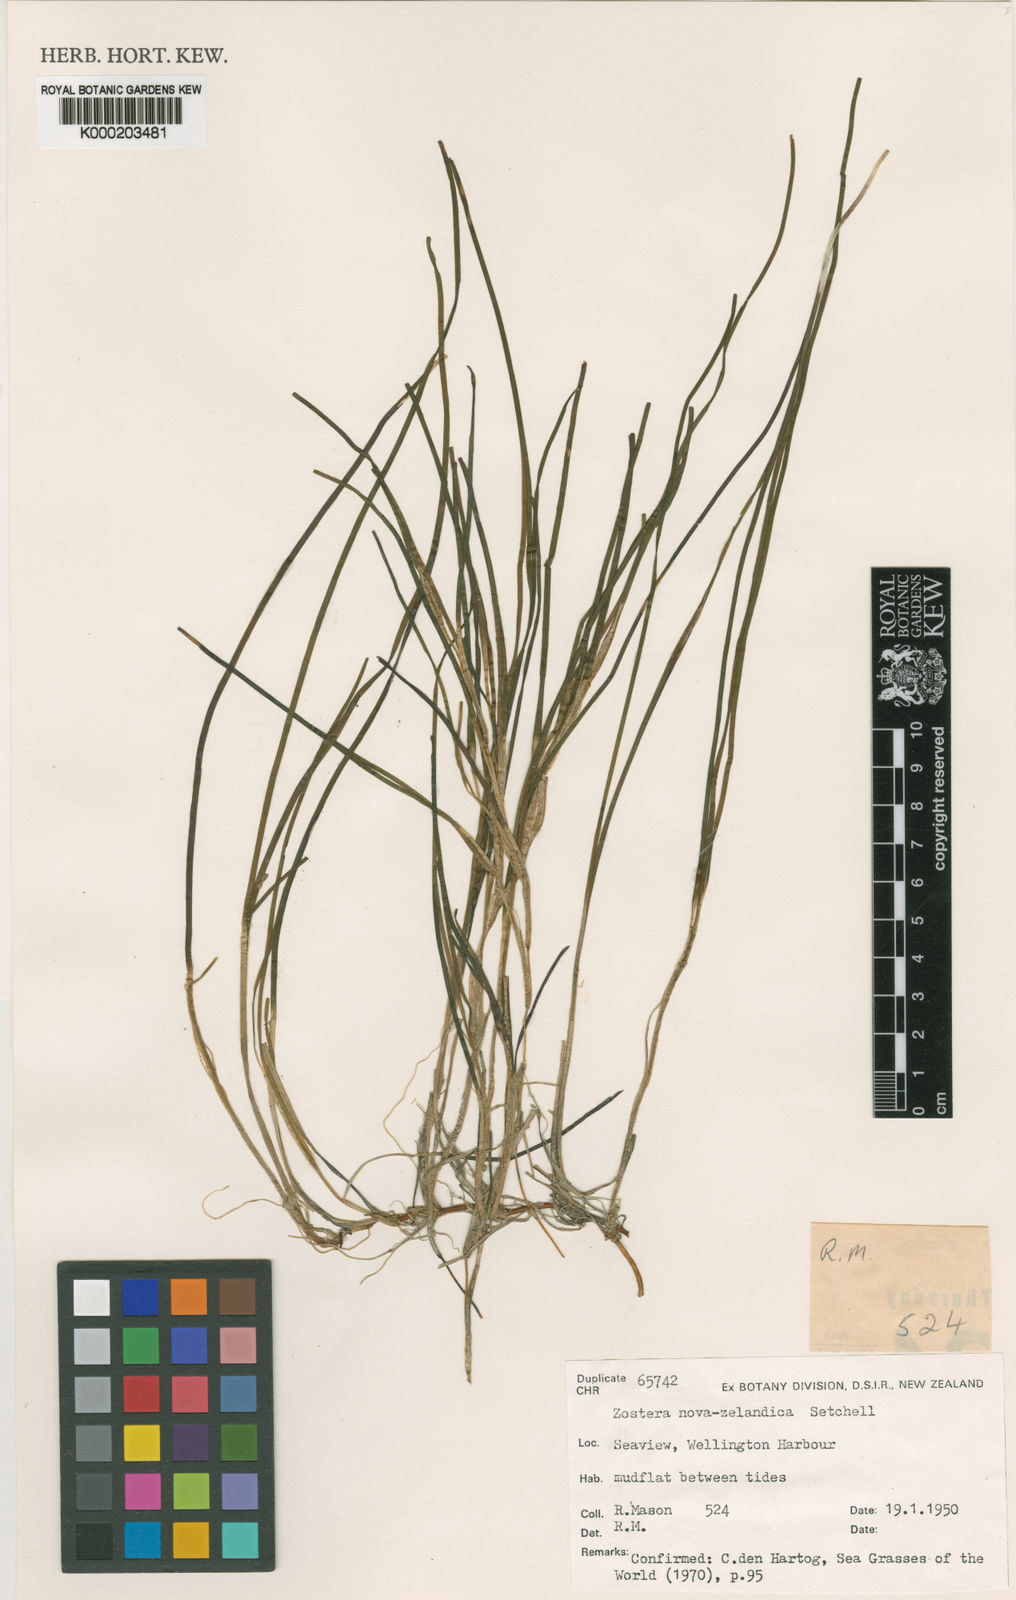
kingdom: Plantae
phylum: Tracheophyta
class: Liliopsida
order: Alismatales
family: Zosteraceae
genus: Zostera
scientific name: Zostera novazelandica
